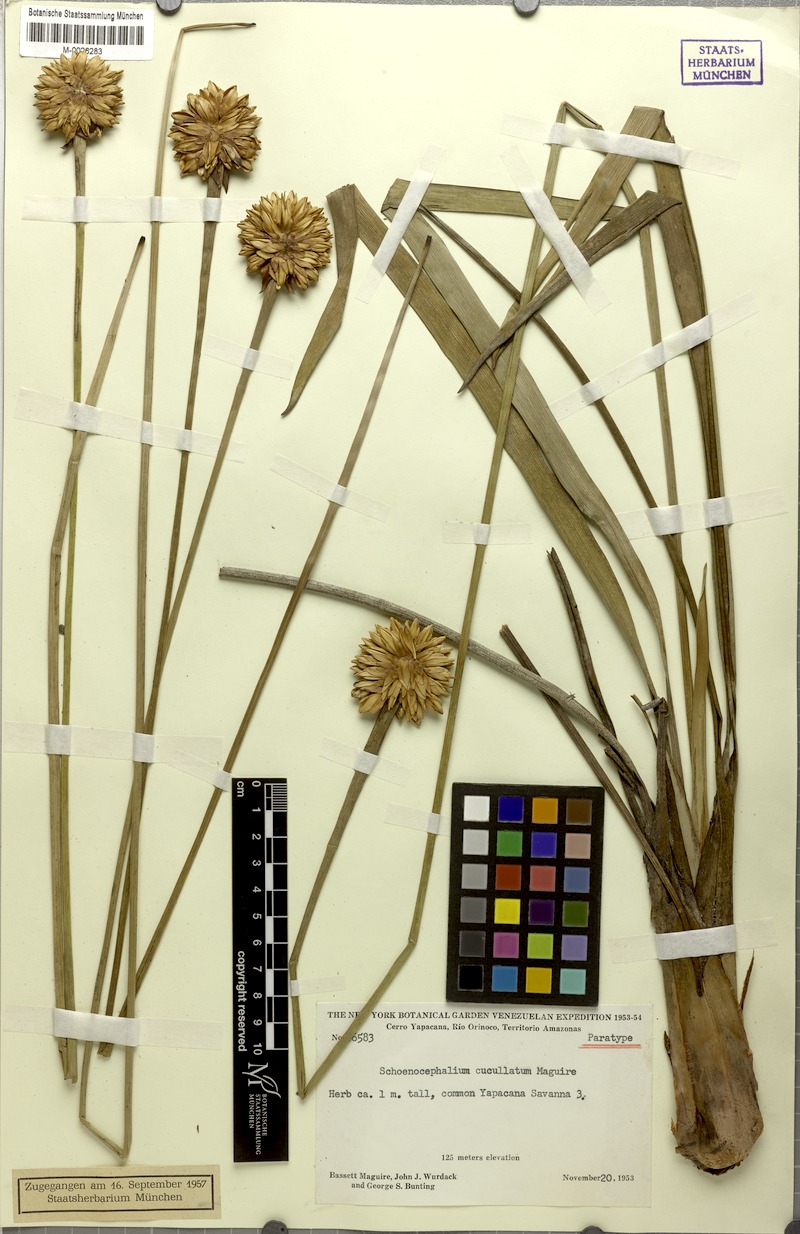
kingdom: Plantae
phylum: Tracheophyta
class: Liliopsida
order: Poales
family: Rapateaceae
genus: Schoenocephalium
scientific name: Schoenocephalium cucullatum
